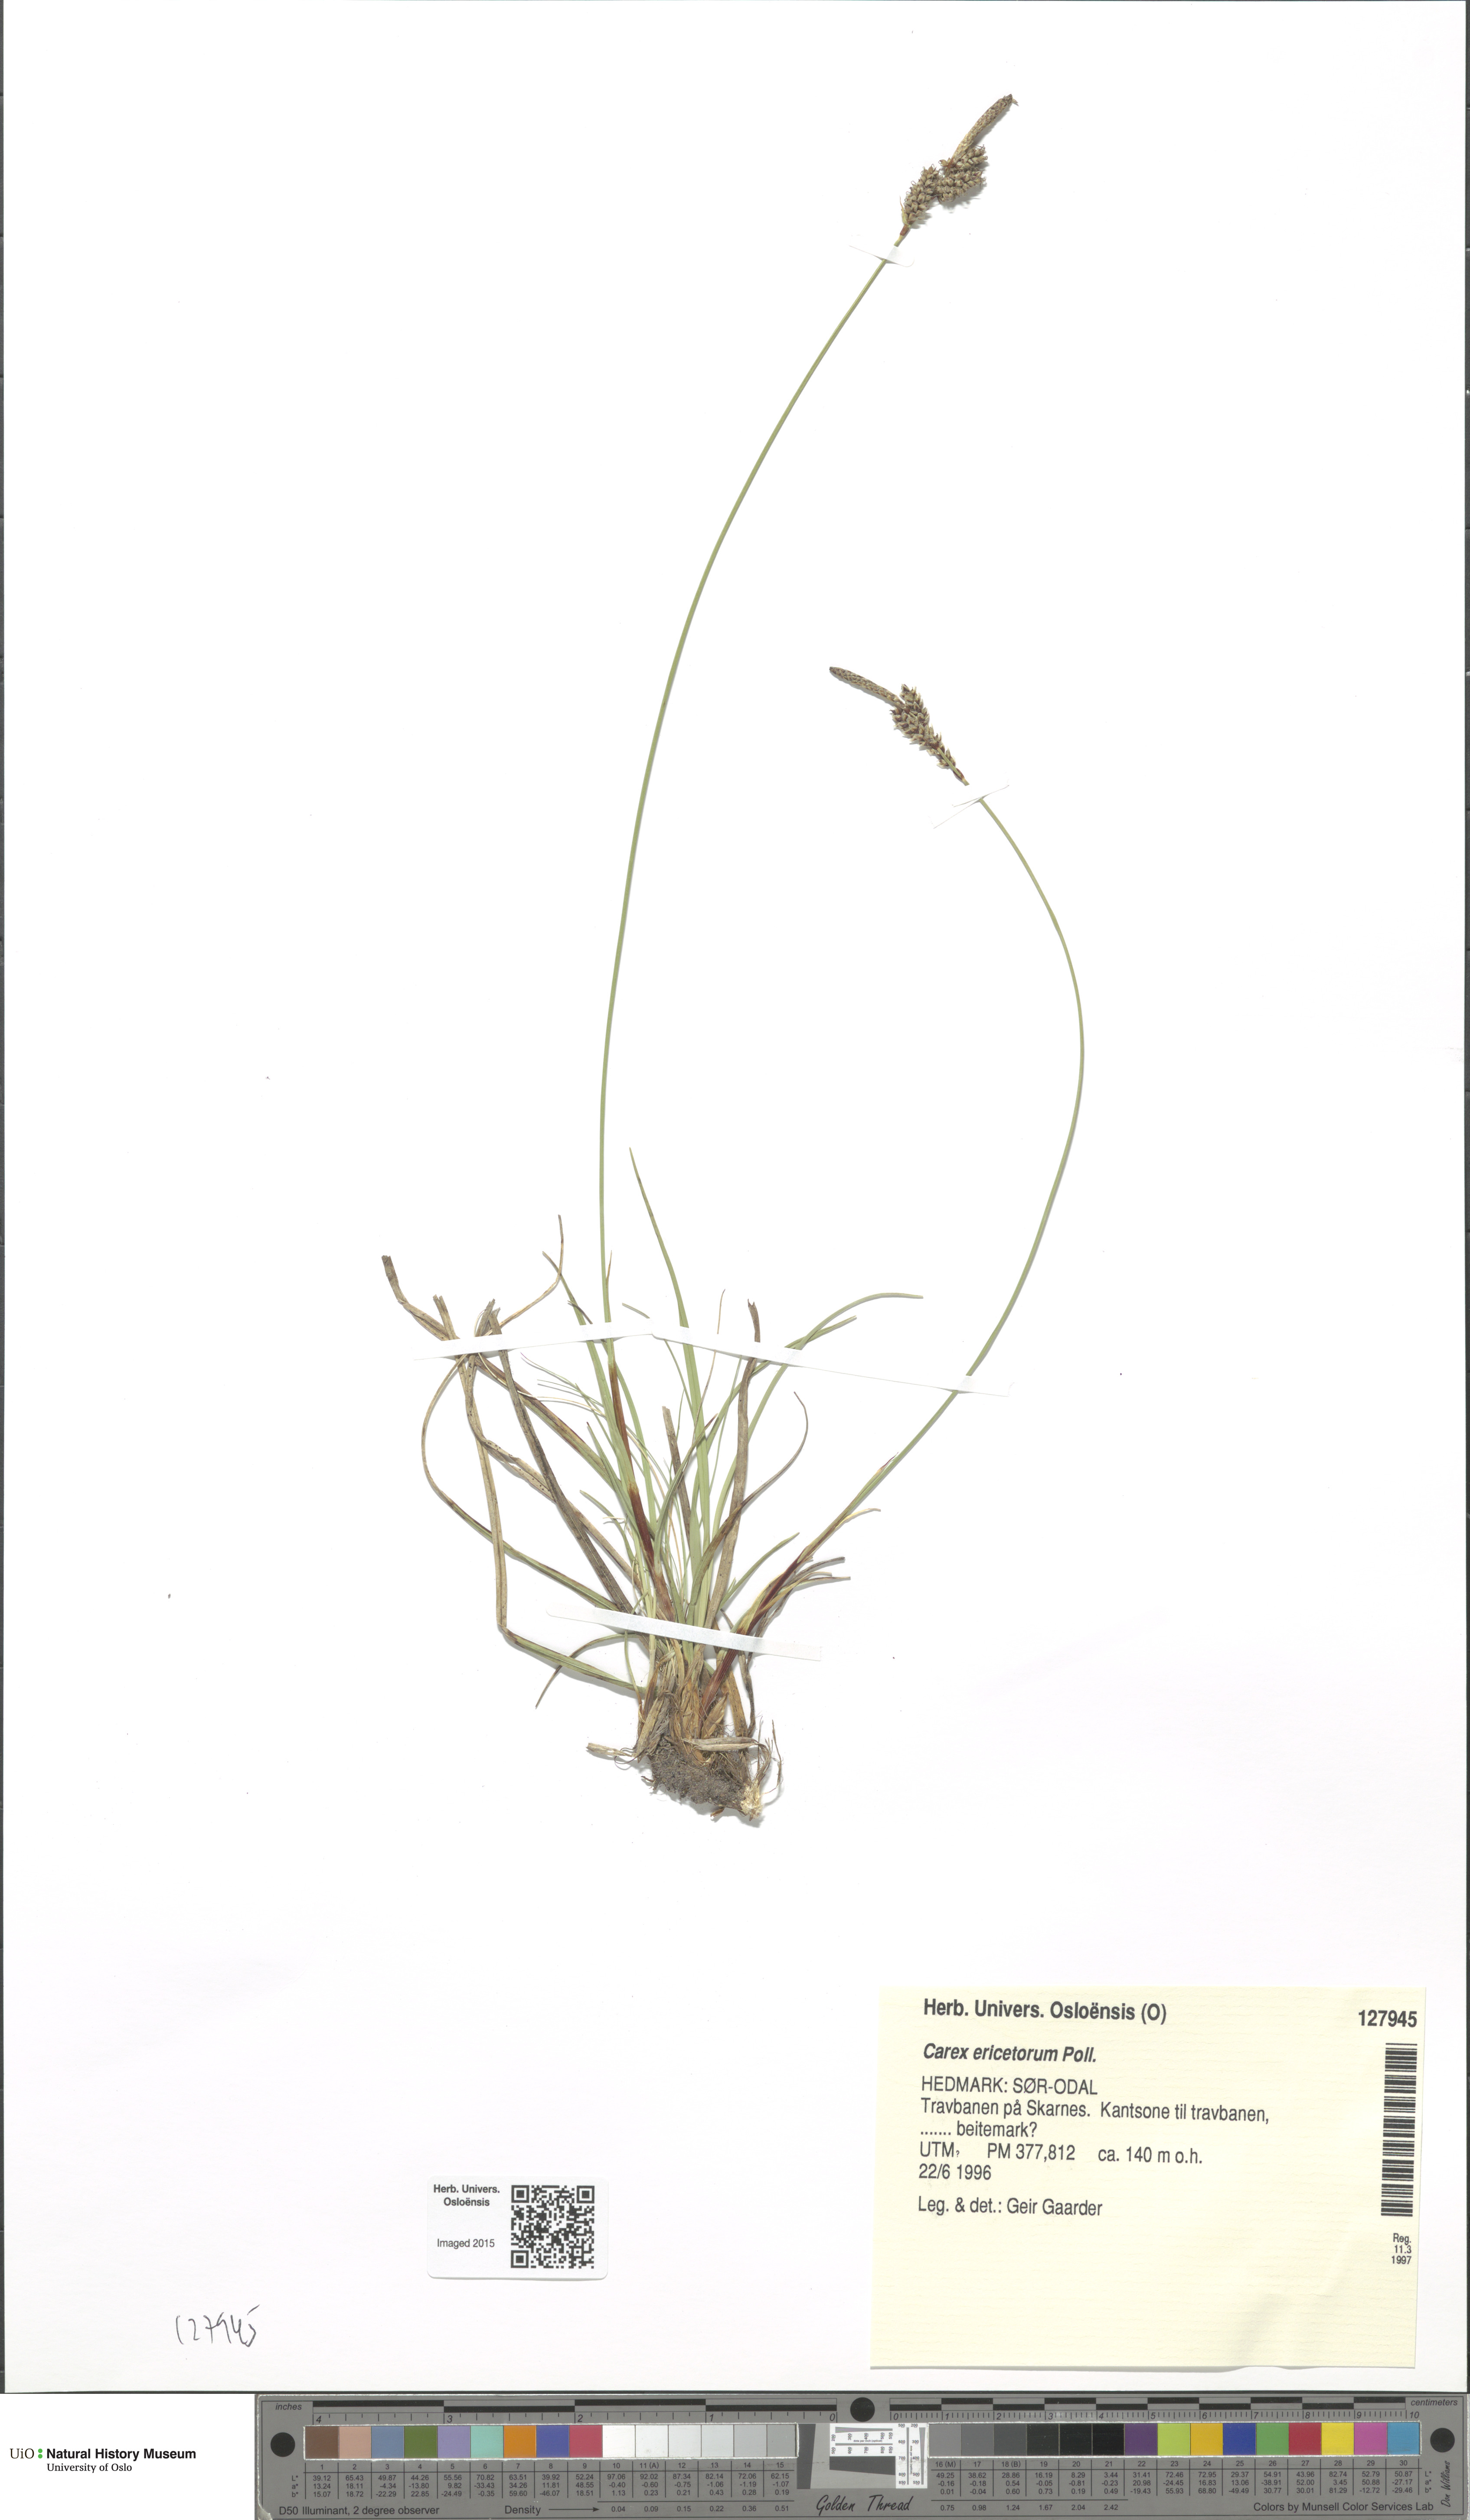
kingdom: Plantae
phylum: Tracheophyta
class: Liliopsida
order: Poales
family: Cyperaceae
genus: Carex
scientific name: Carex ericetorum
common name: Rare spring-sedge
